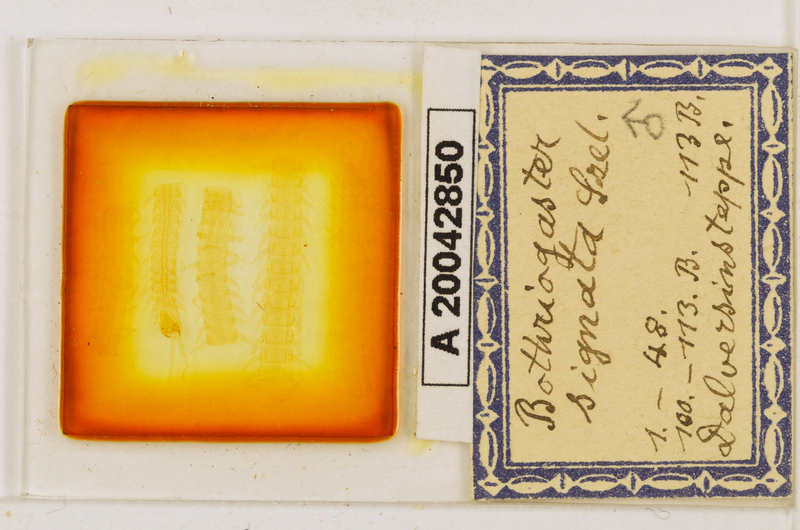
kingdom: Animalia
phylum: Arthropoda
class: Chilopoda
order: Geophilomorpha
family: Himantariidae
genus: Bothriogaster
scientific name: Bothriogaster signata
